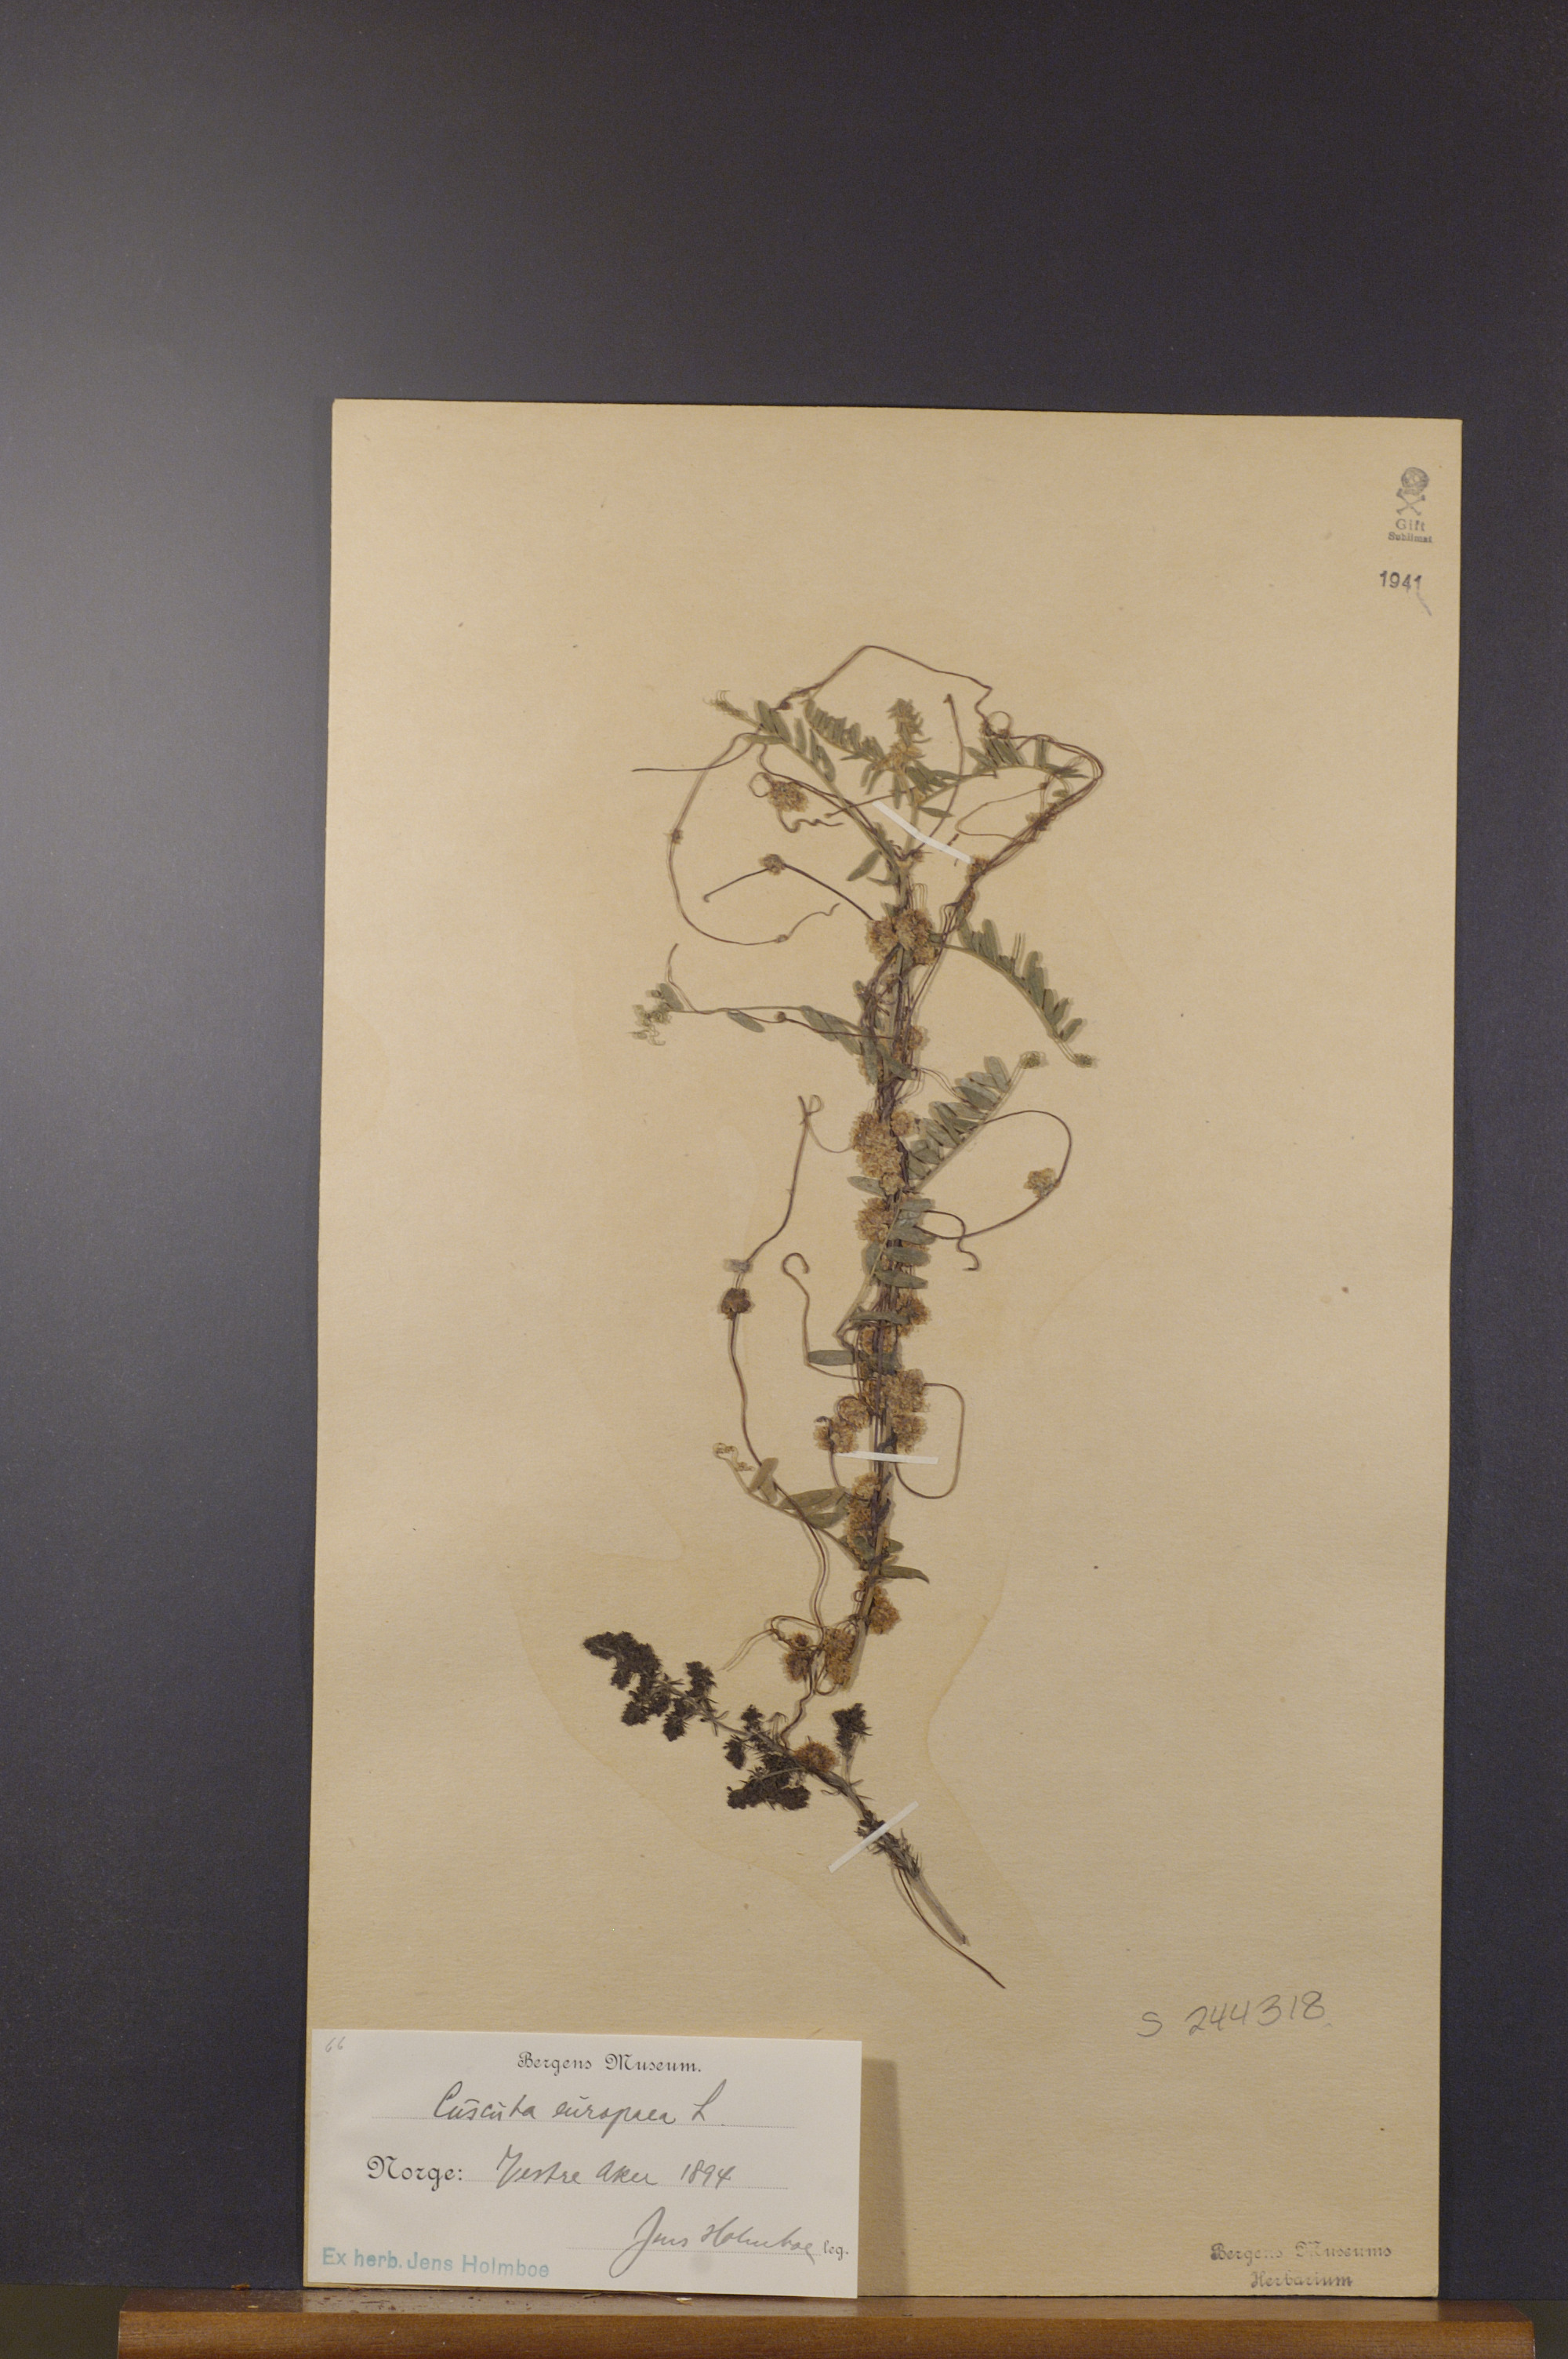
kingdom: Plantae
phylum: Tracheophyta
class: Magnoliopsida
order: Solanales
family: Convolvulaceae
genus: Cuscuta
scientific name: Cuscuta europaea
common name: Greater dodder
